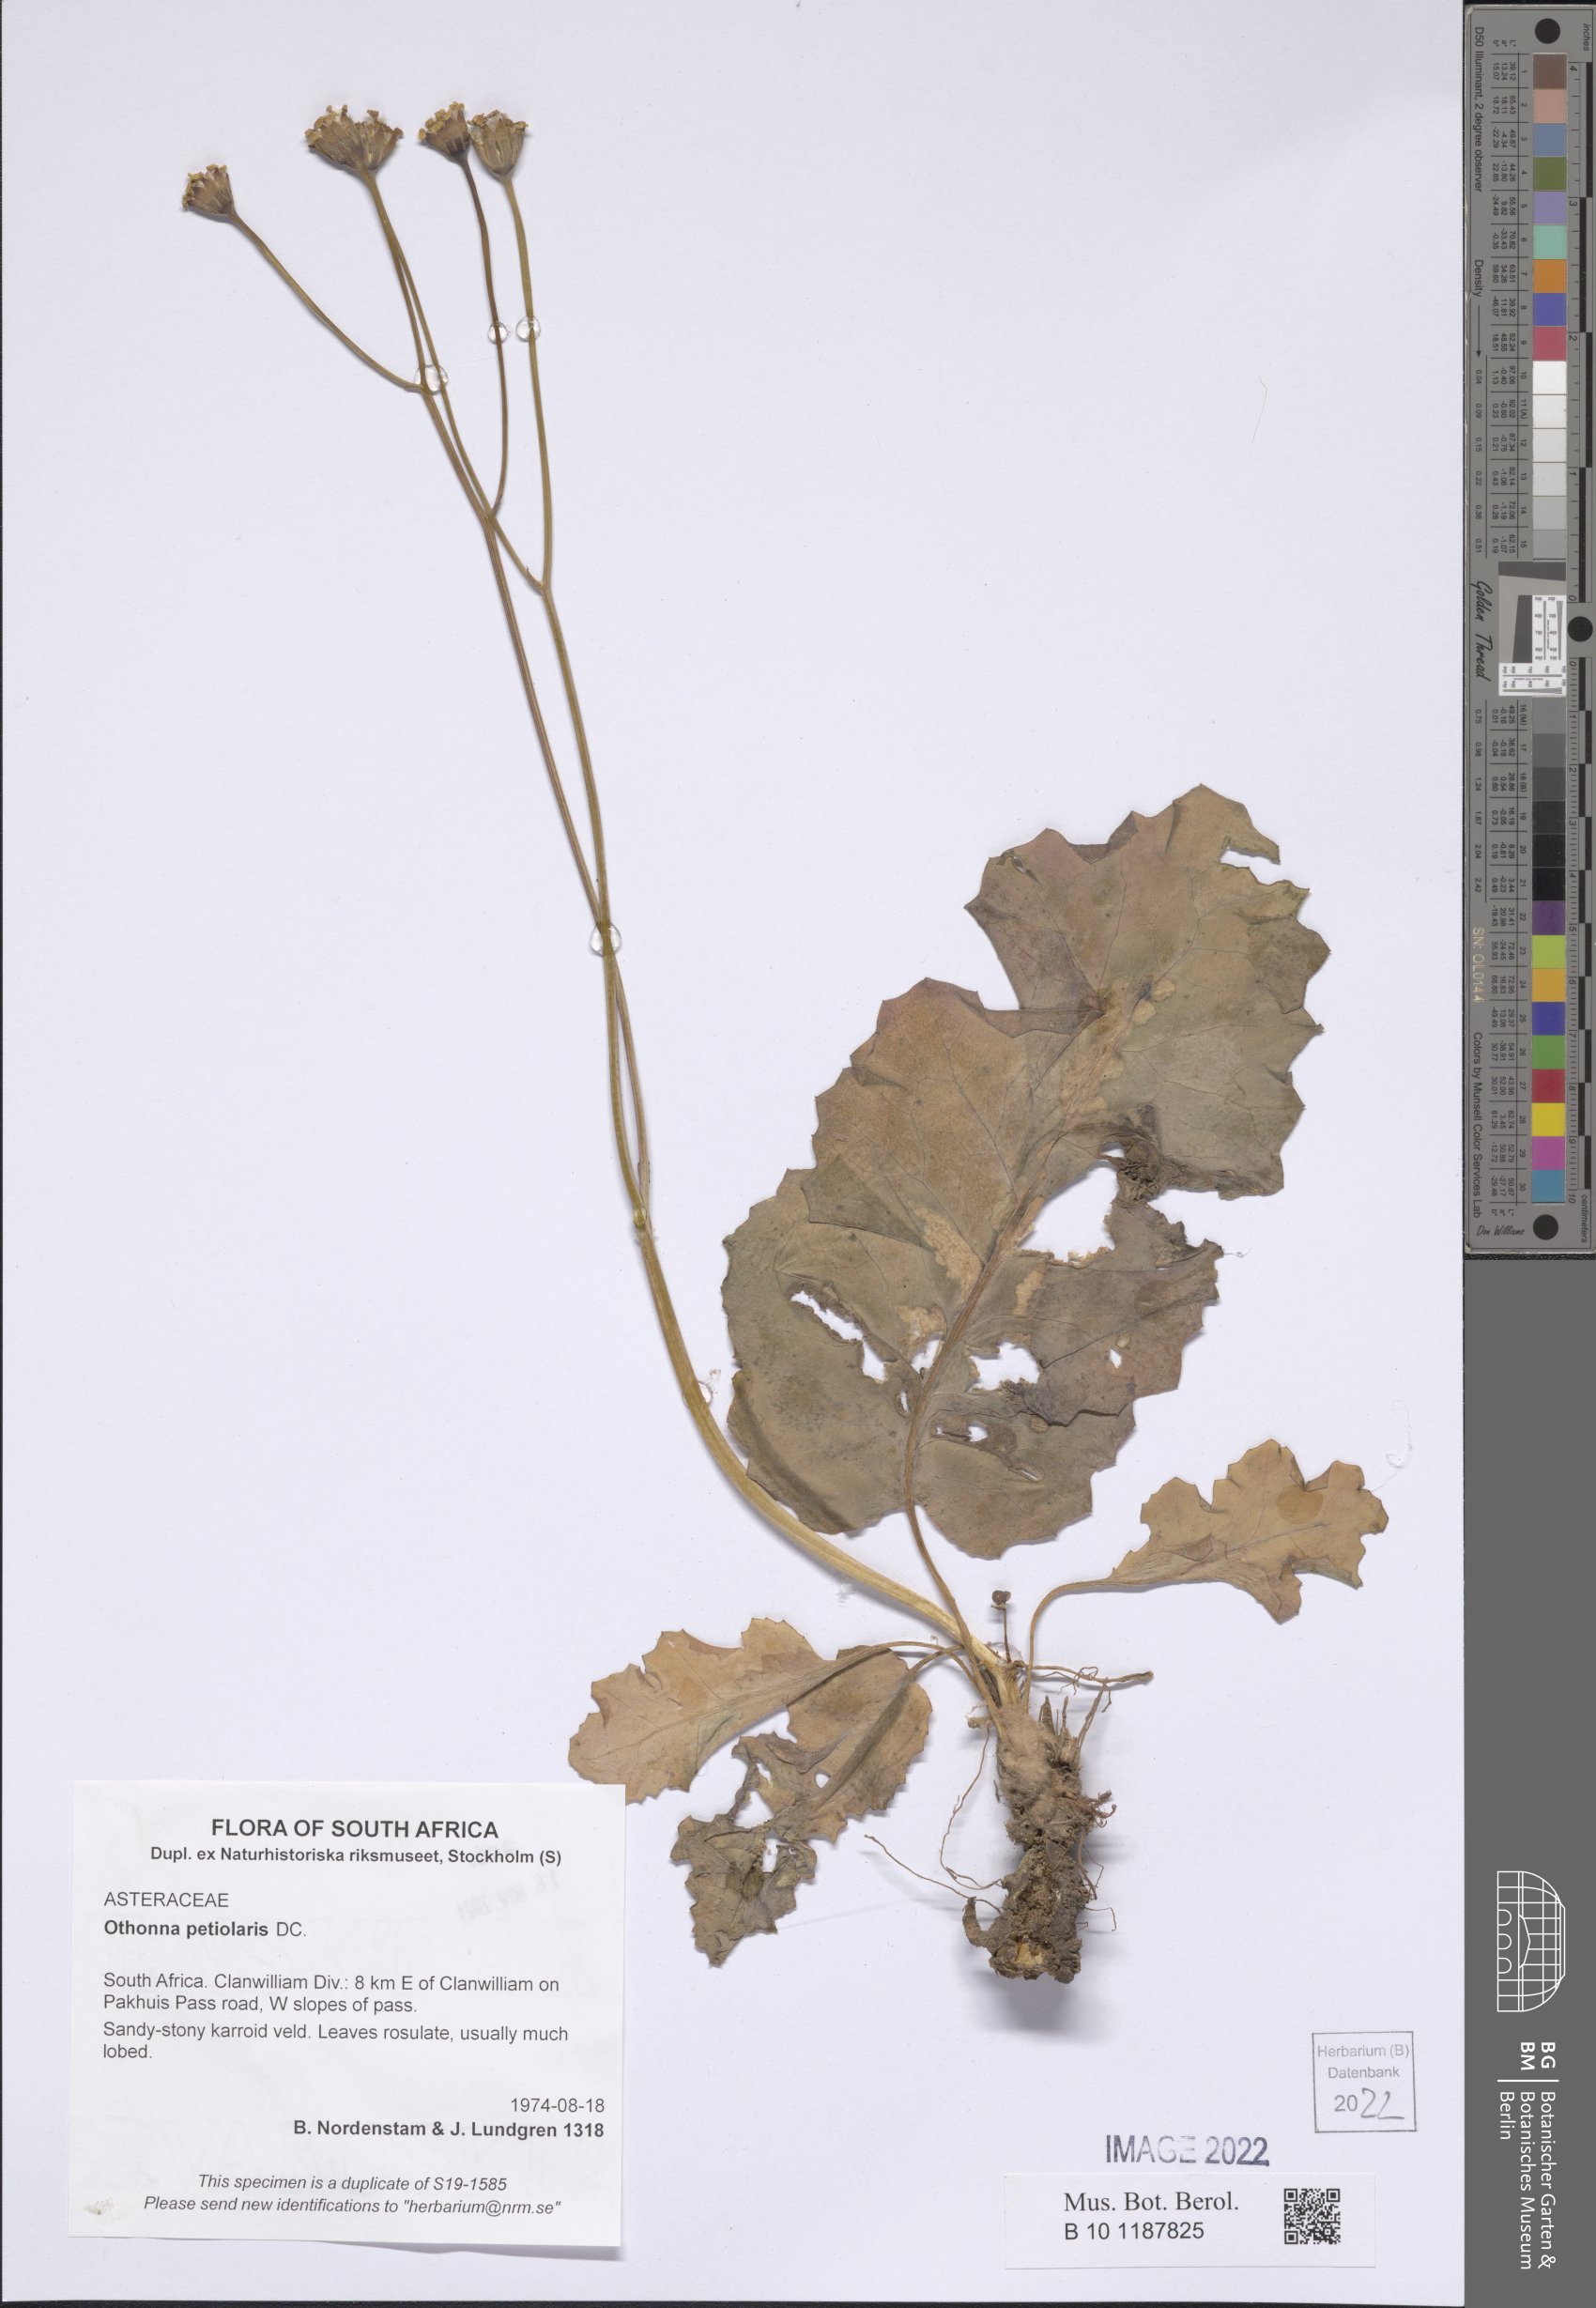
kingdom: Plantae
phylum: Tracheophyta
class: Magnoliopsida
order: Asterales
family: Asteraceae
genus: Othonna
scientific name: Othonna petiolaris
